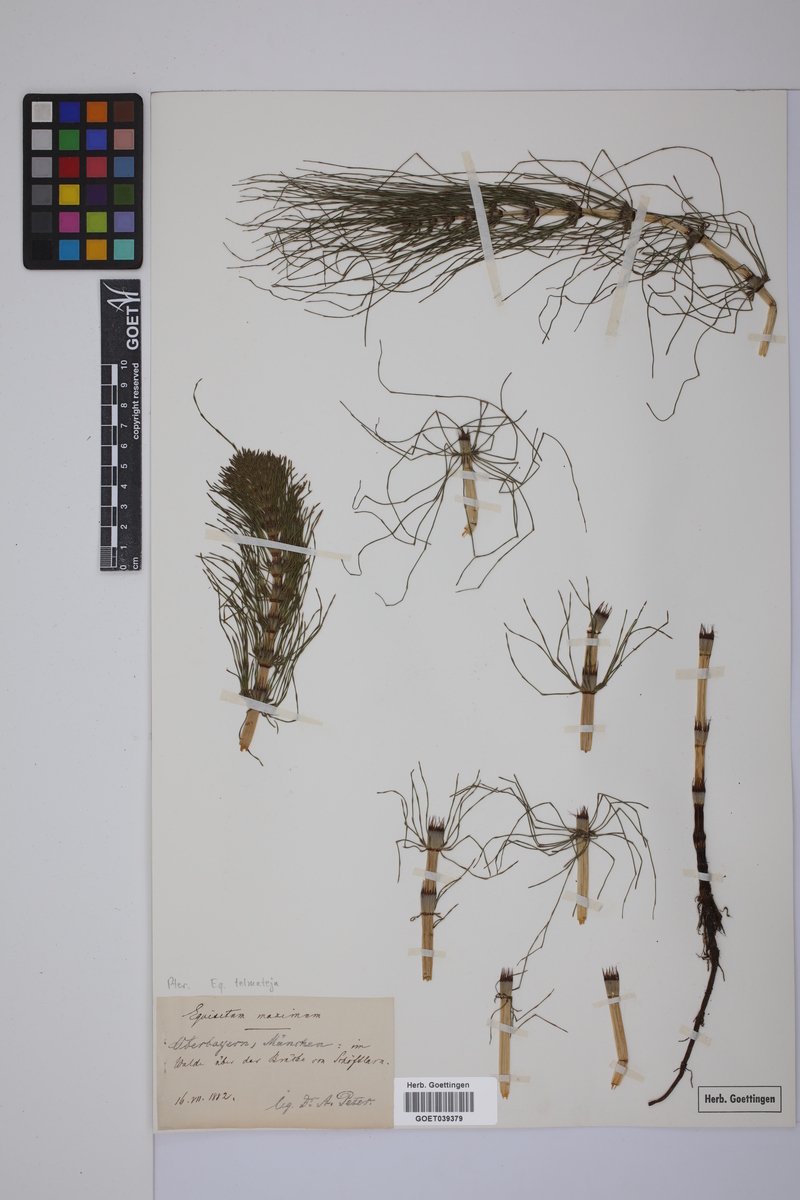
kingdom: Plantae
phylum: Tracheophyta
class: Polypodiopsida
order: Equisetales
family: Equisetaceae
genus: Equisetum
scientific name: Equisetum telmateia
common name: Great horsetail
